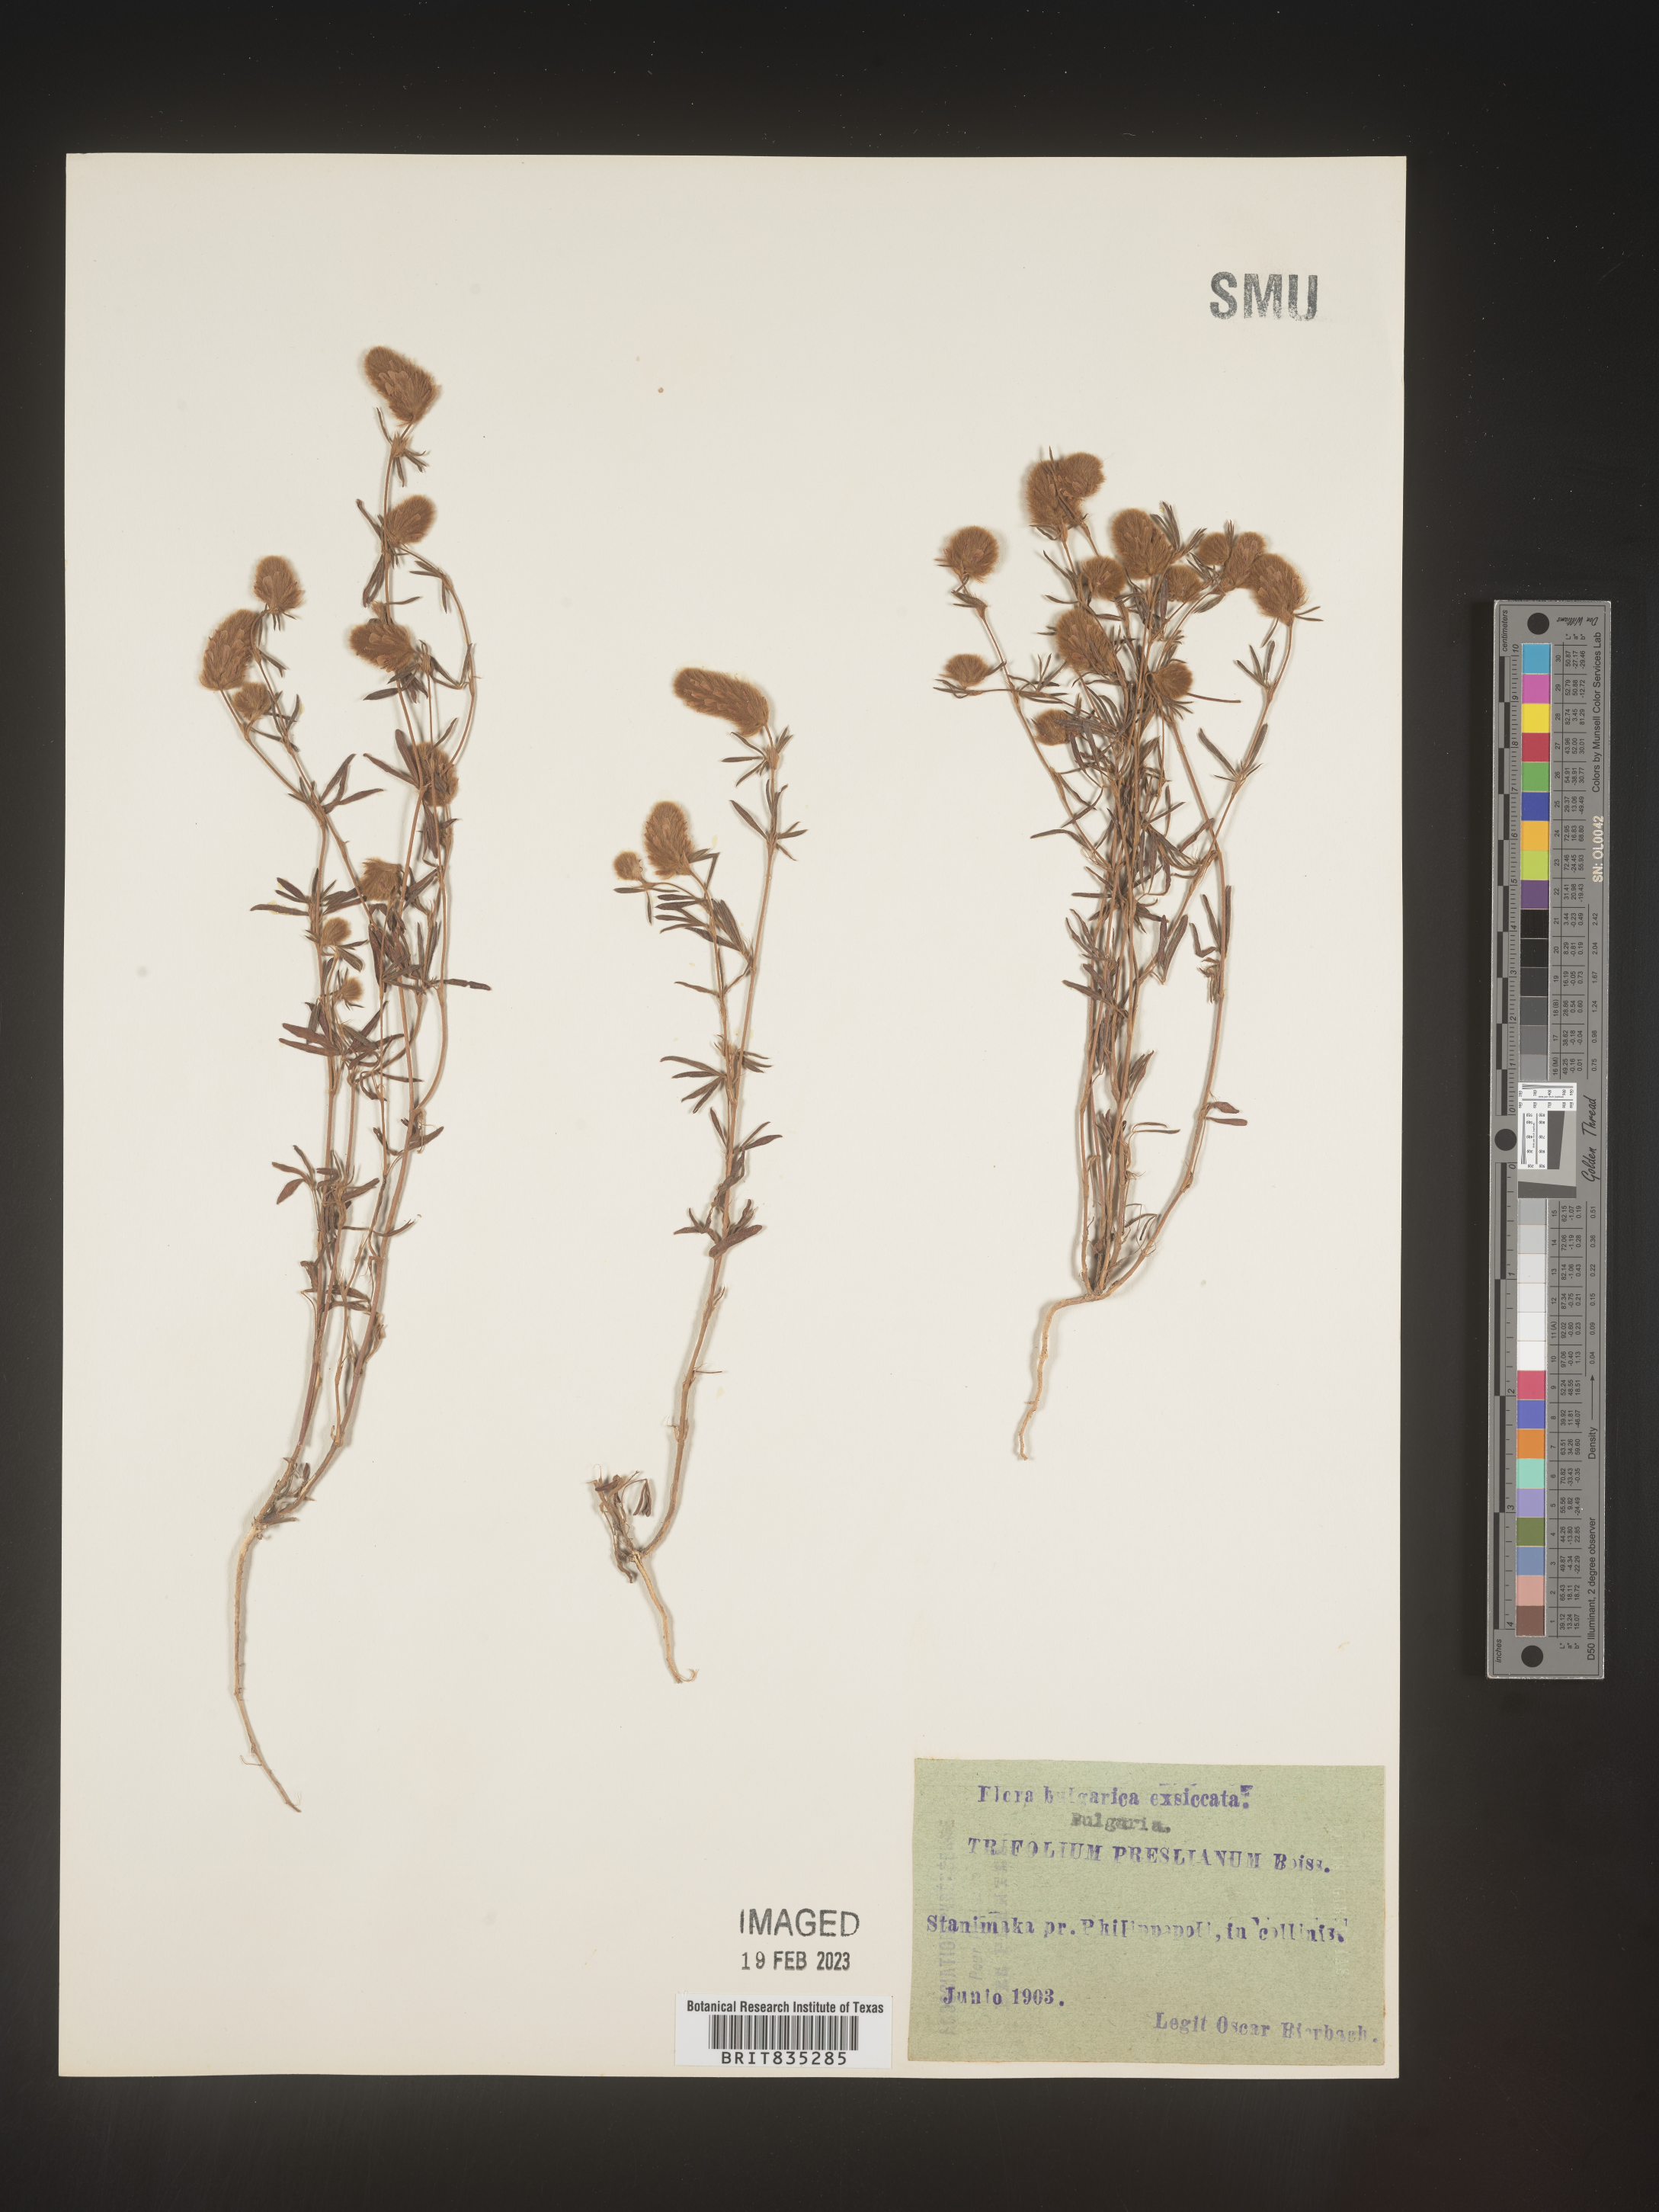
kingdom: Plantae
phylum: Tracheophyta
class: Magnoliopsida
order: Fabales
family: Fabaceae
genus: Trifolium
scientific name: Trifolium
